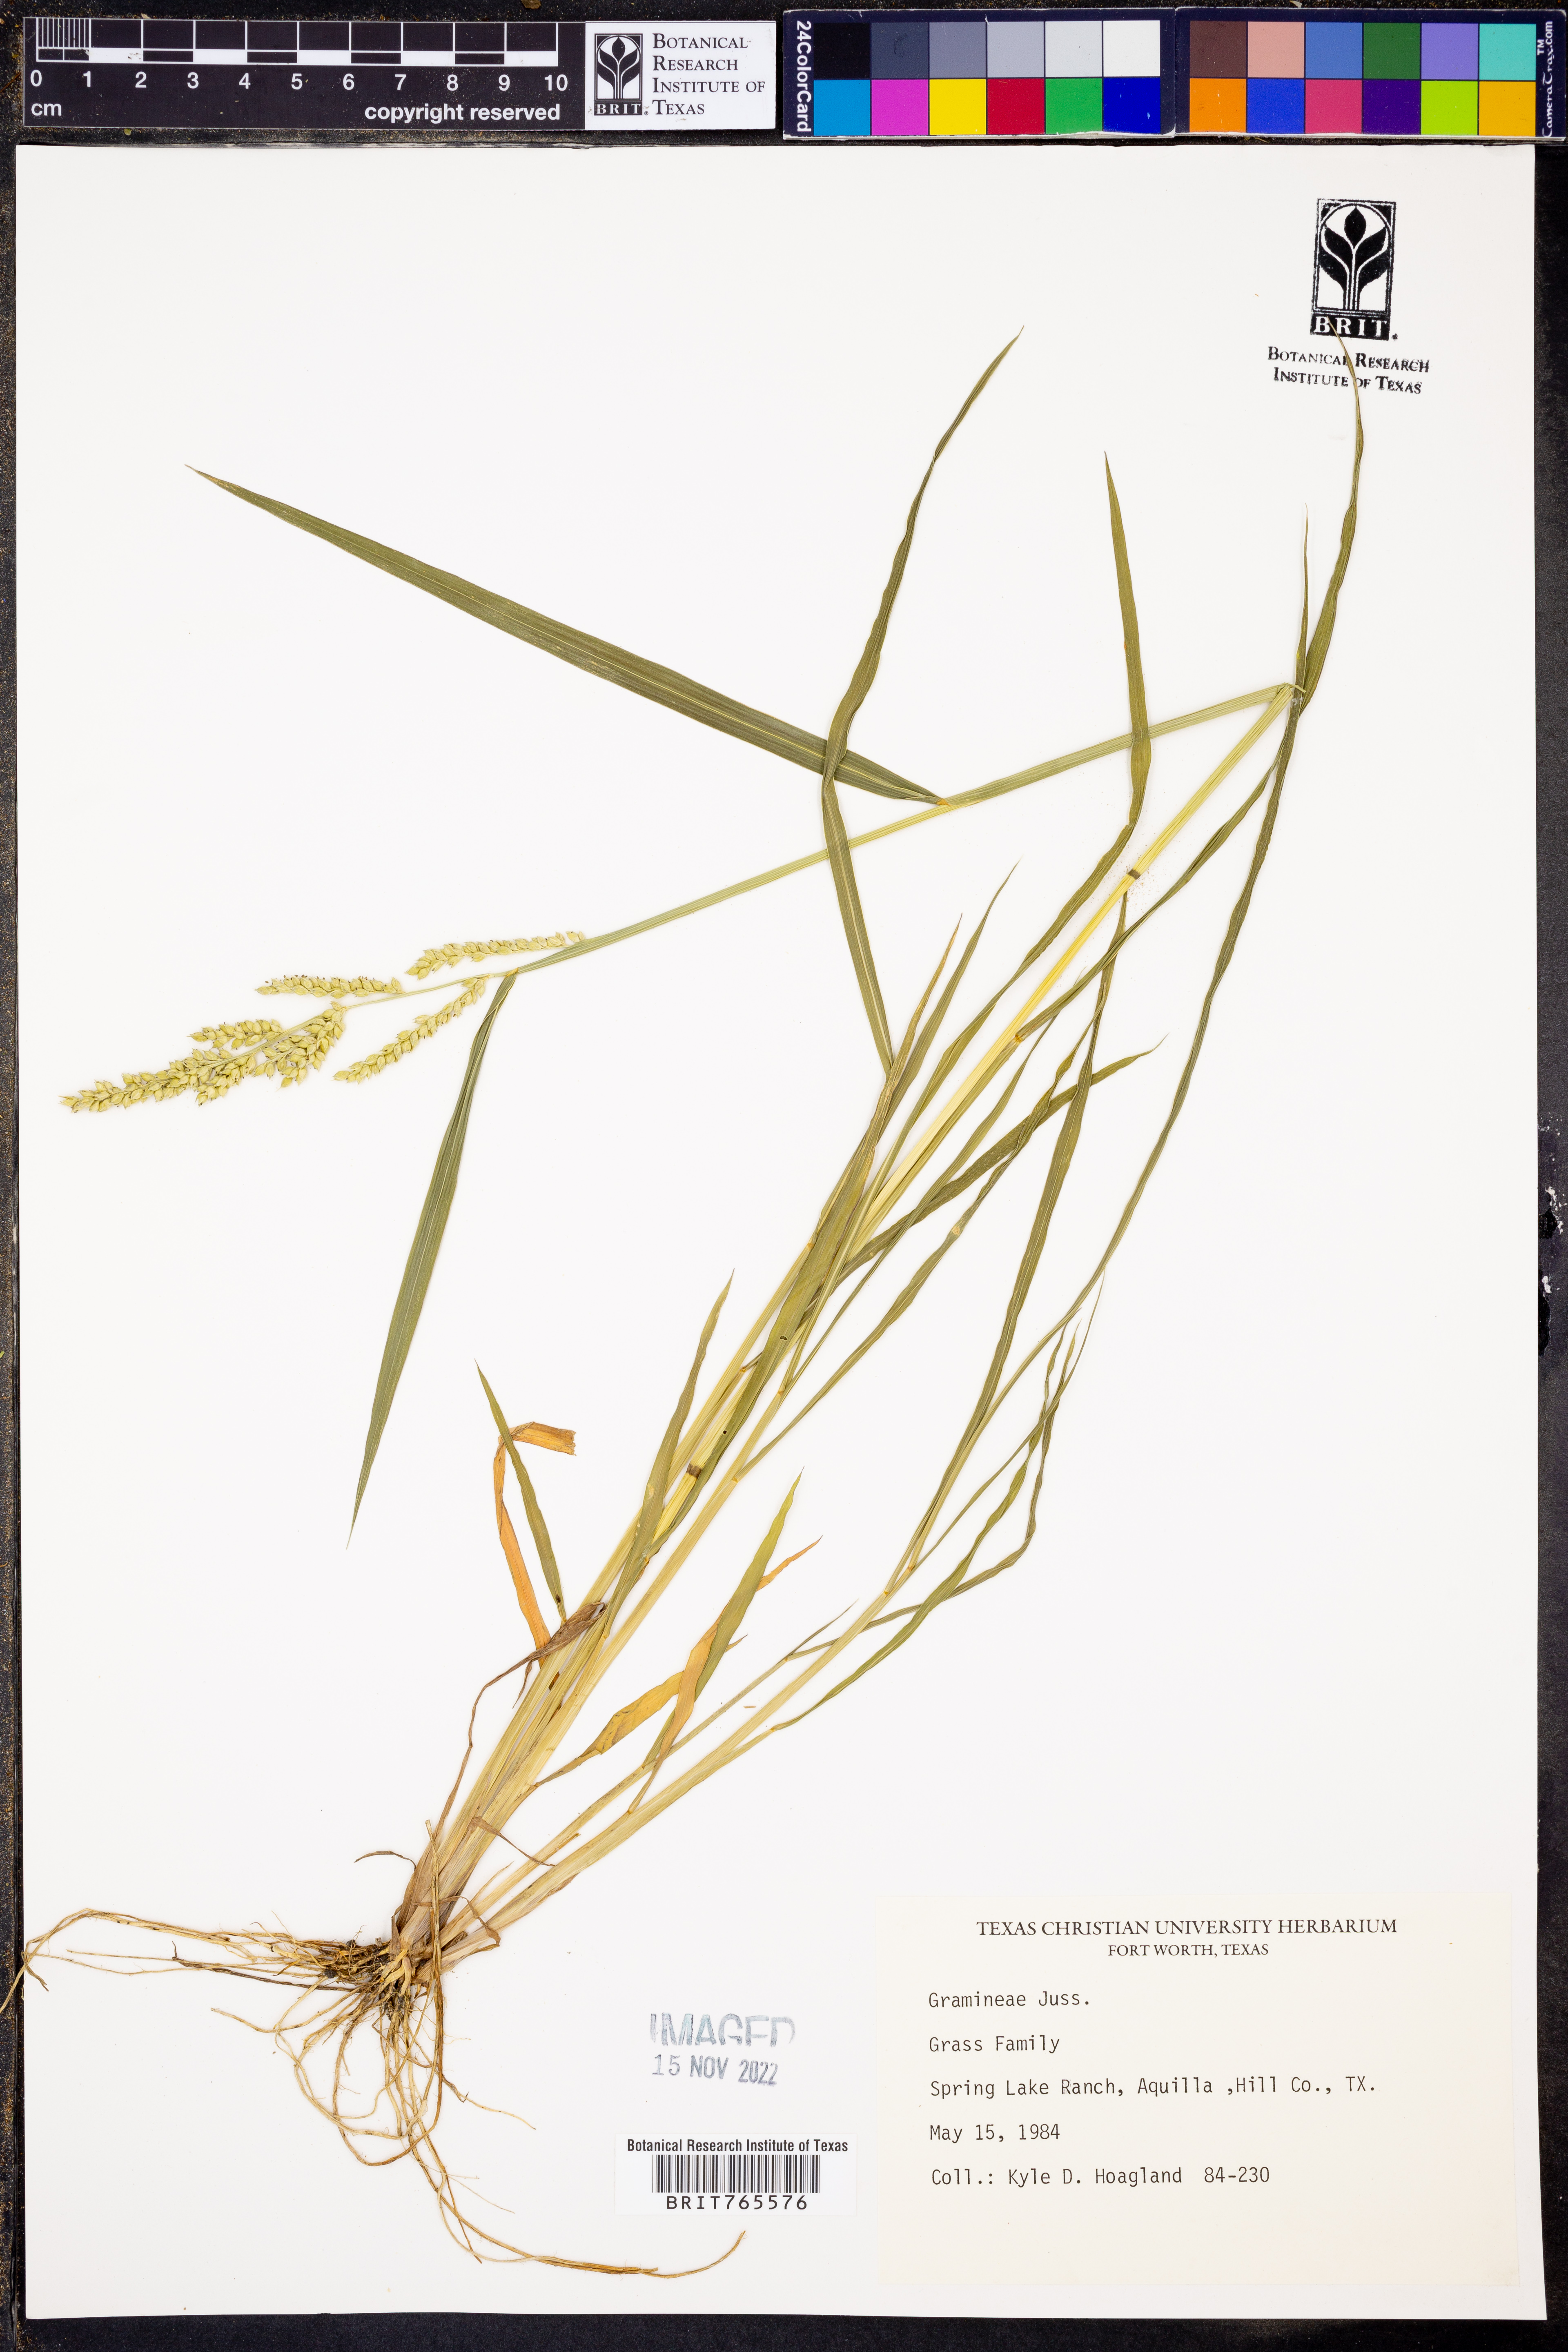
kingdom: Plantae
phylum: Tracheophyta
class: Liliopsida
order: Poales
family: Poaceae
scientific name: Poaceae
